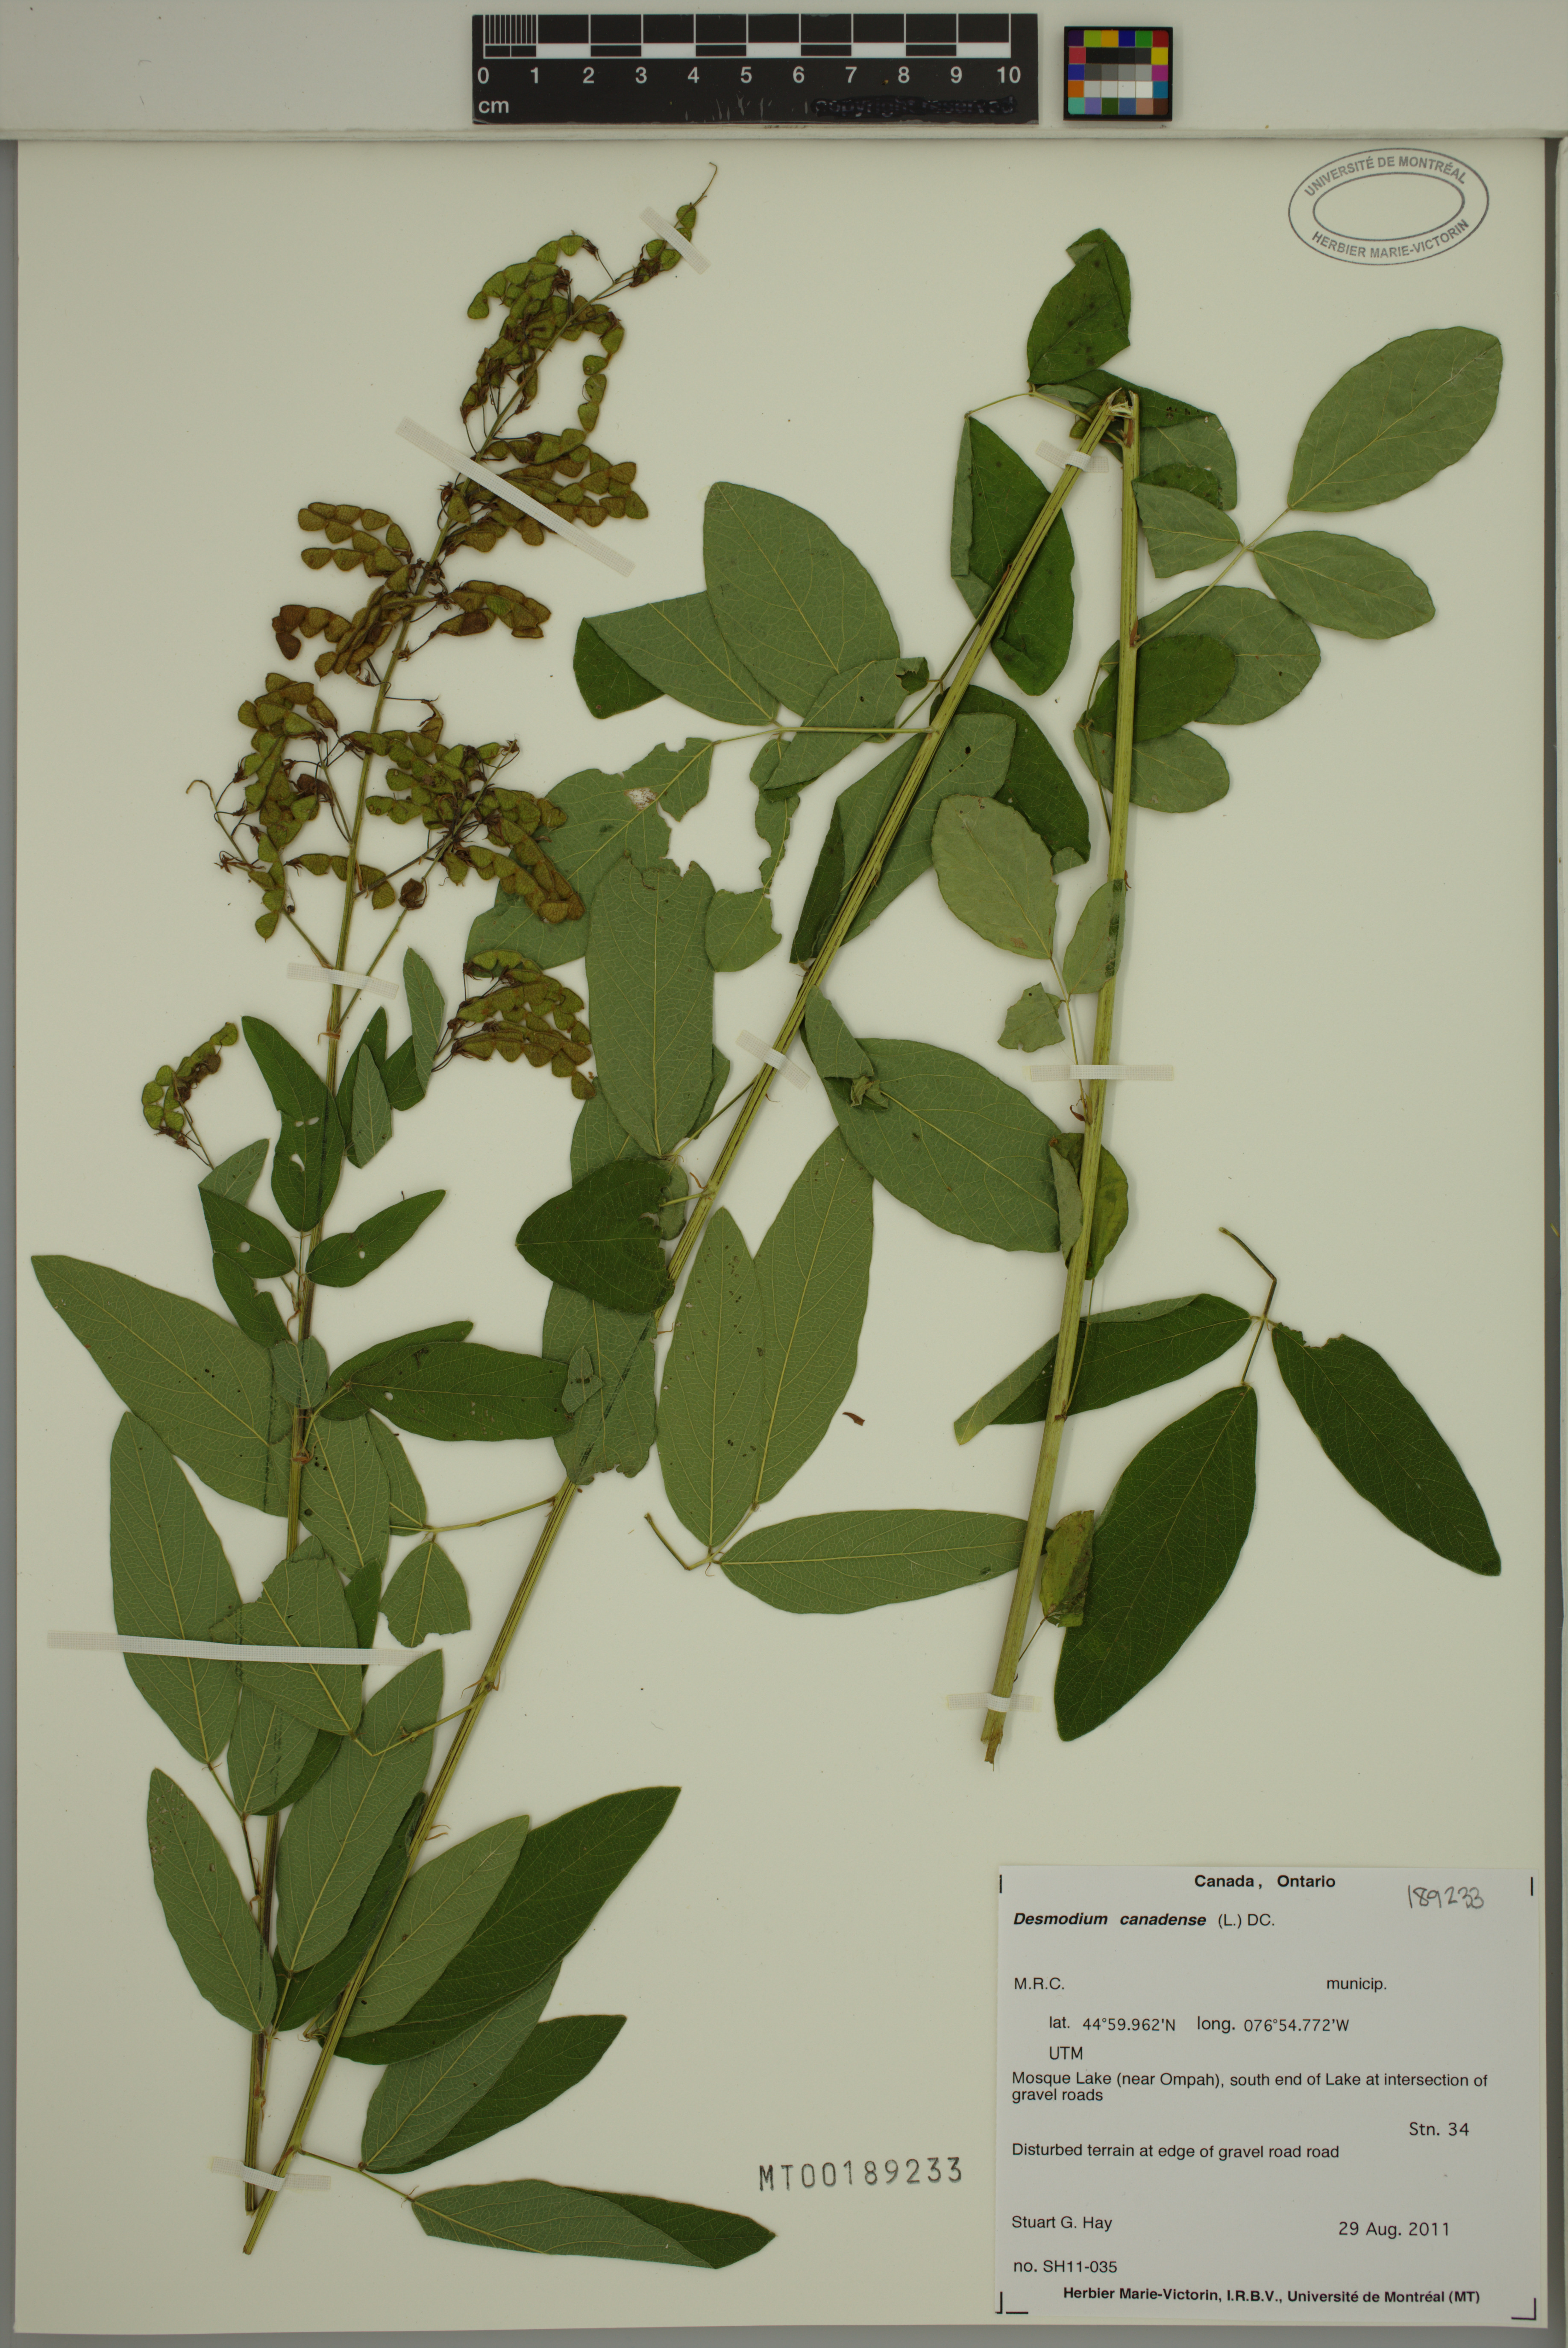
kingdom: Plantae
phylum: Tracheophyta
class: Magnoliopsida
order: Fabales
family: Fabaceae
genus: Desmodium
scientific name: Desmodium canadense
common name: Canada tick-trefoil
